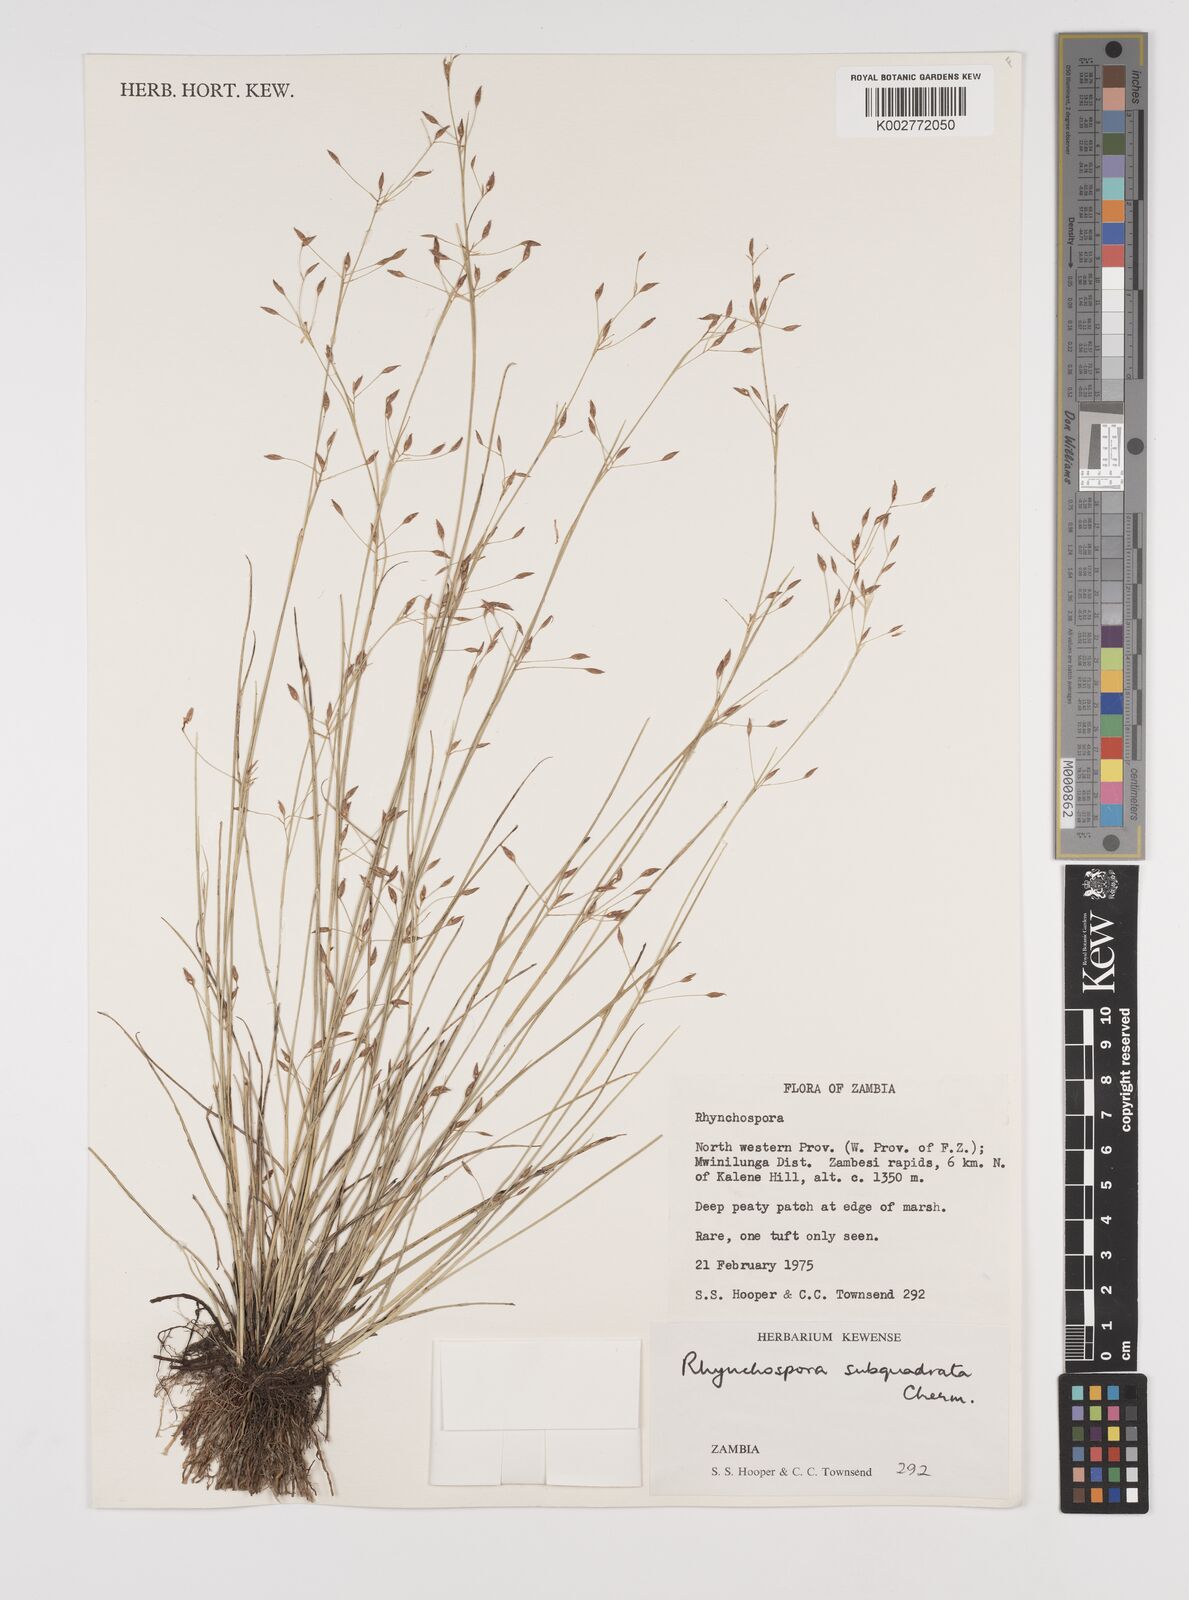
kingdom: Plantae
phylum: Tracheophyta
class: Liliopsida
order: Poales
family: Cyperaceae
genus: Rhynchospora
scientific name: Rhynchospora gracillima
